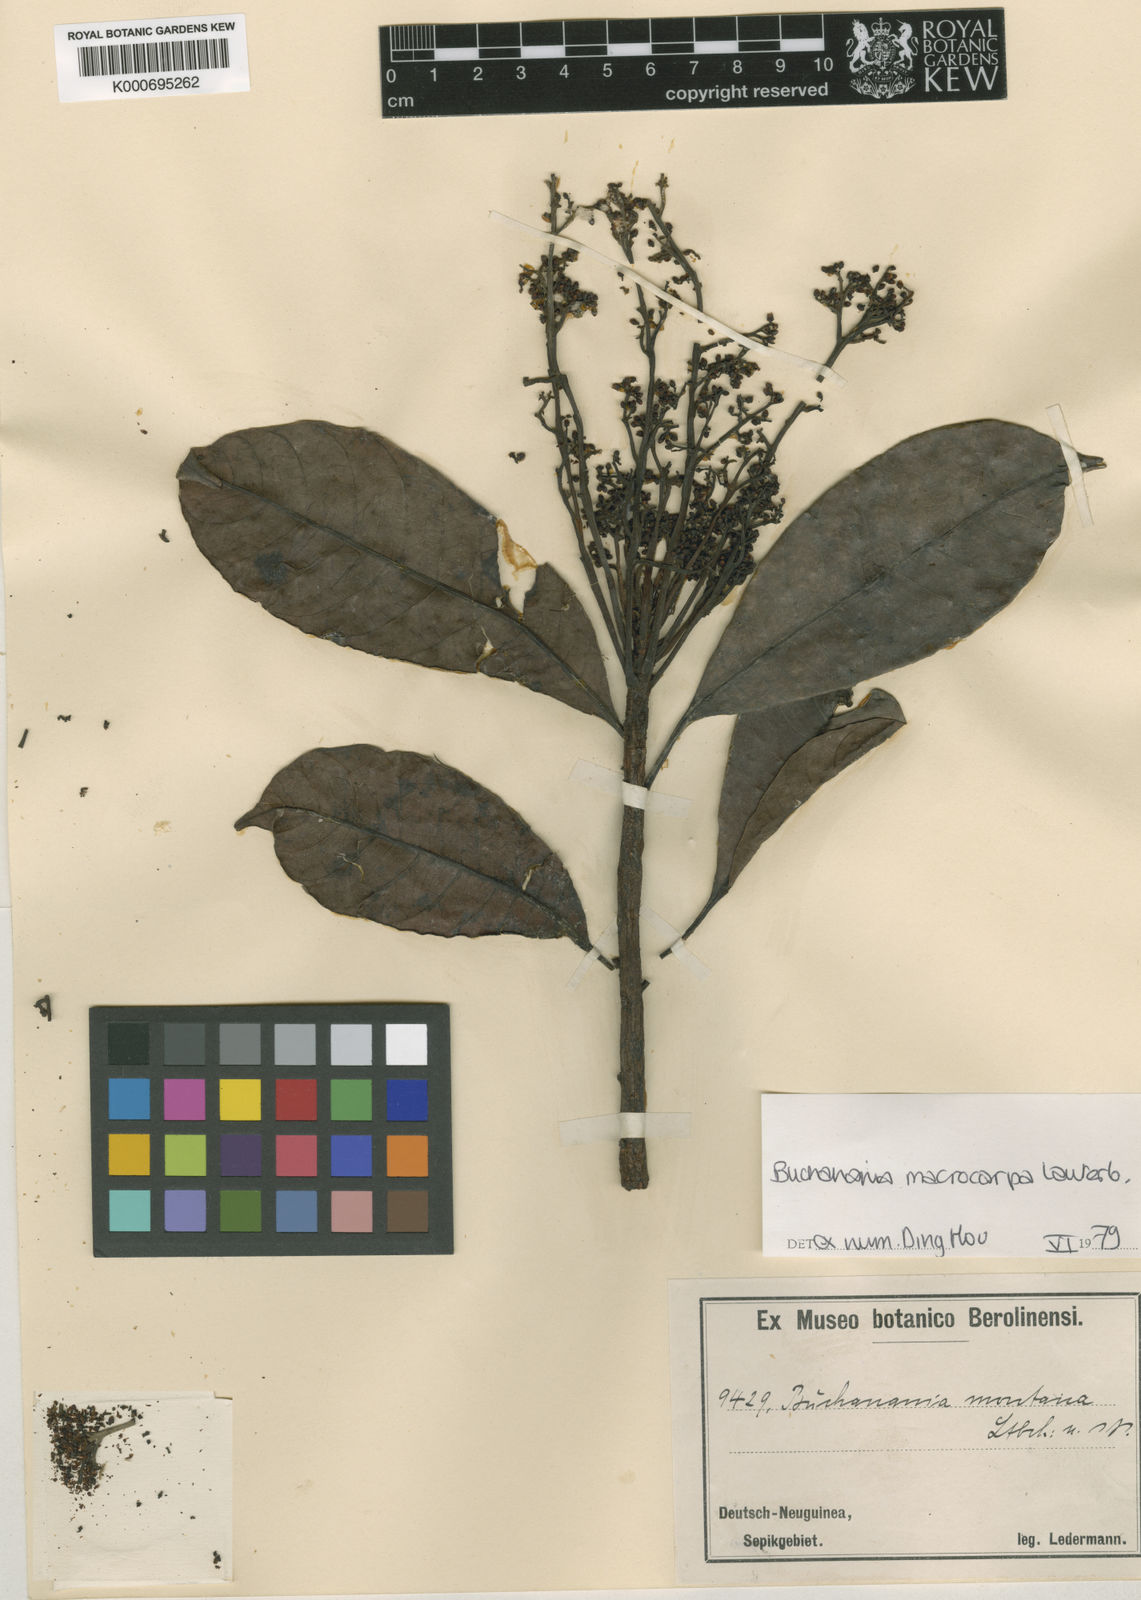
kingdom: Plantae
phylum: Tracheophyta
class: Magnoliopsida
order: Sapindales
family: Anacardiaceae
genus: Buchanania
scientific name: Buchanania macrocarpa
